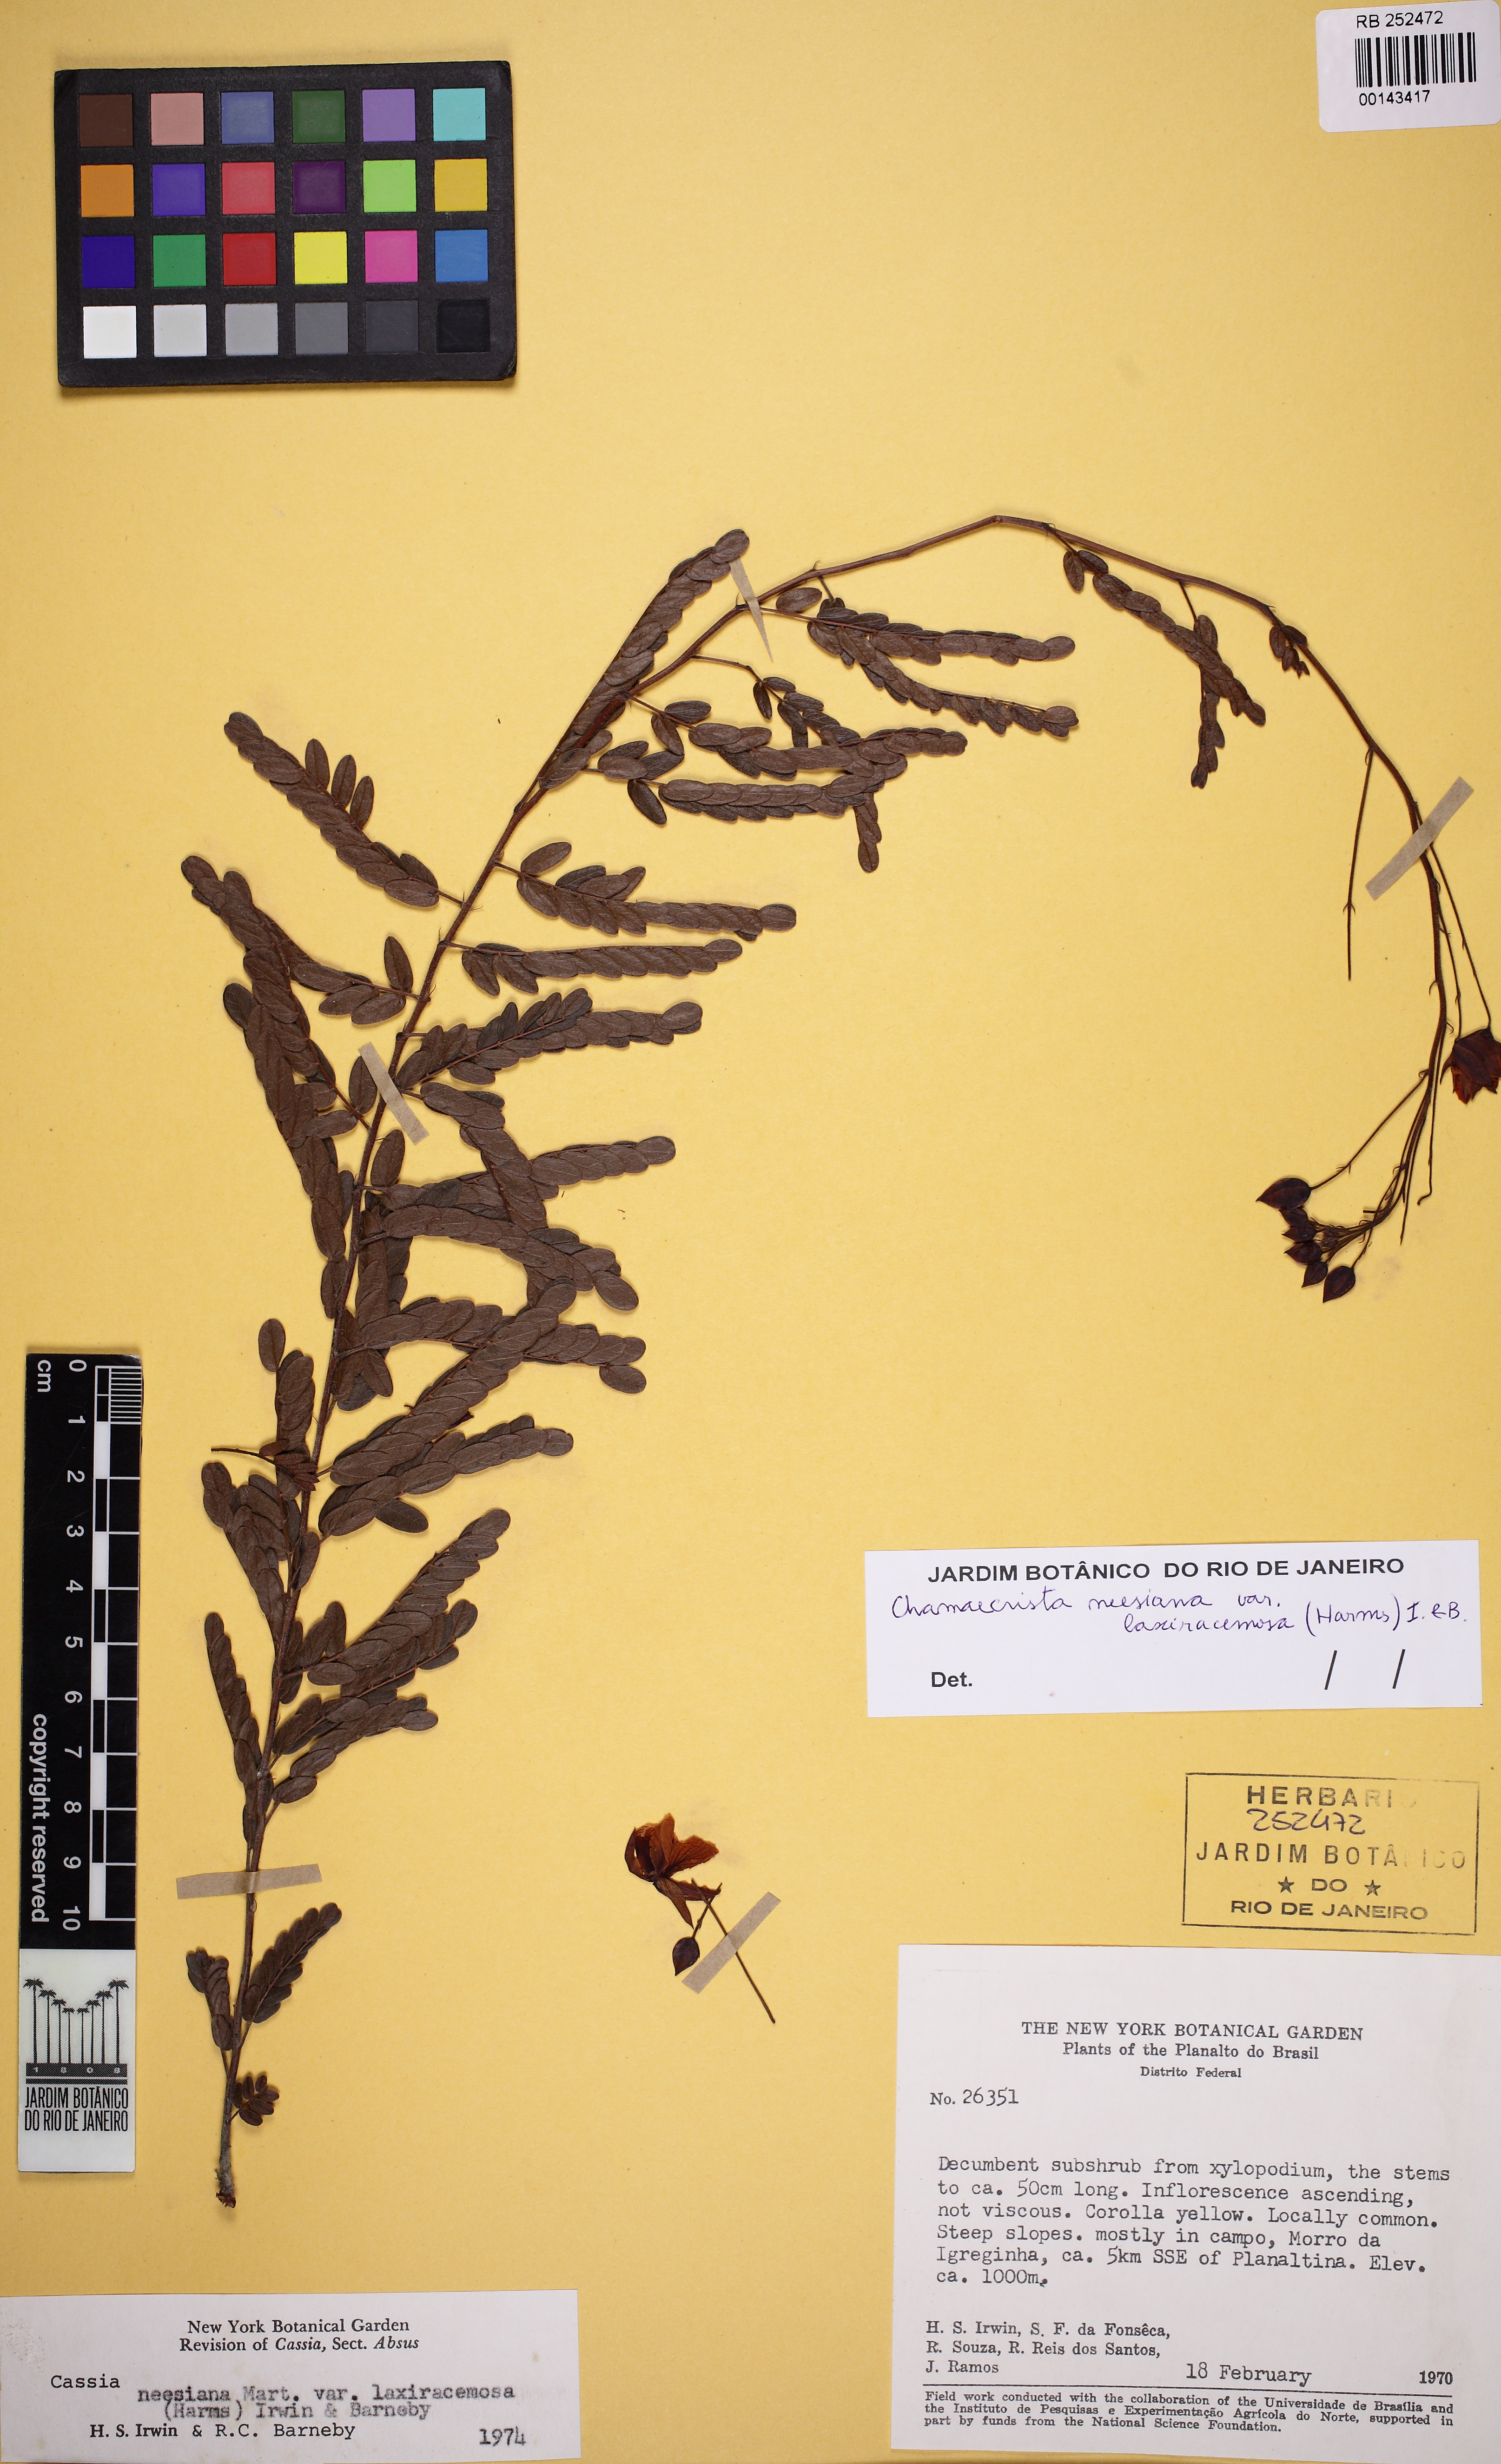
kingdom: Plantae
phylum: Tracheophyta
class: Magnoliopsida
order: Fabales
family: Fabaceae
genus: Chamaecrista
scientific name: Chamaecrista neesiana
